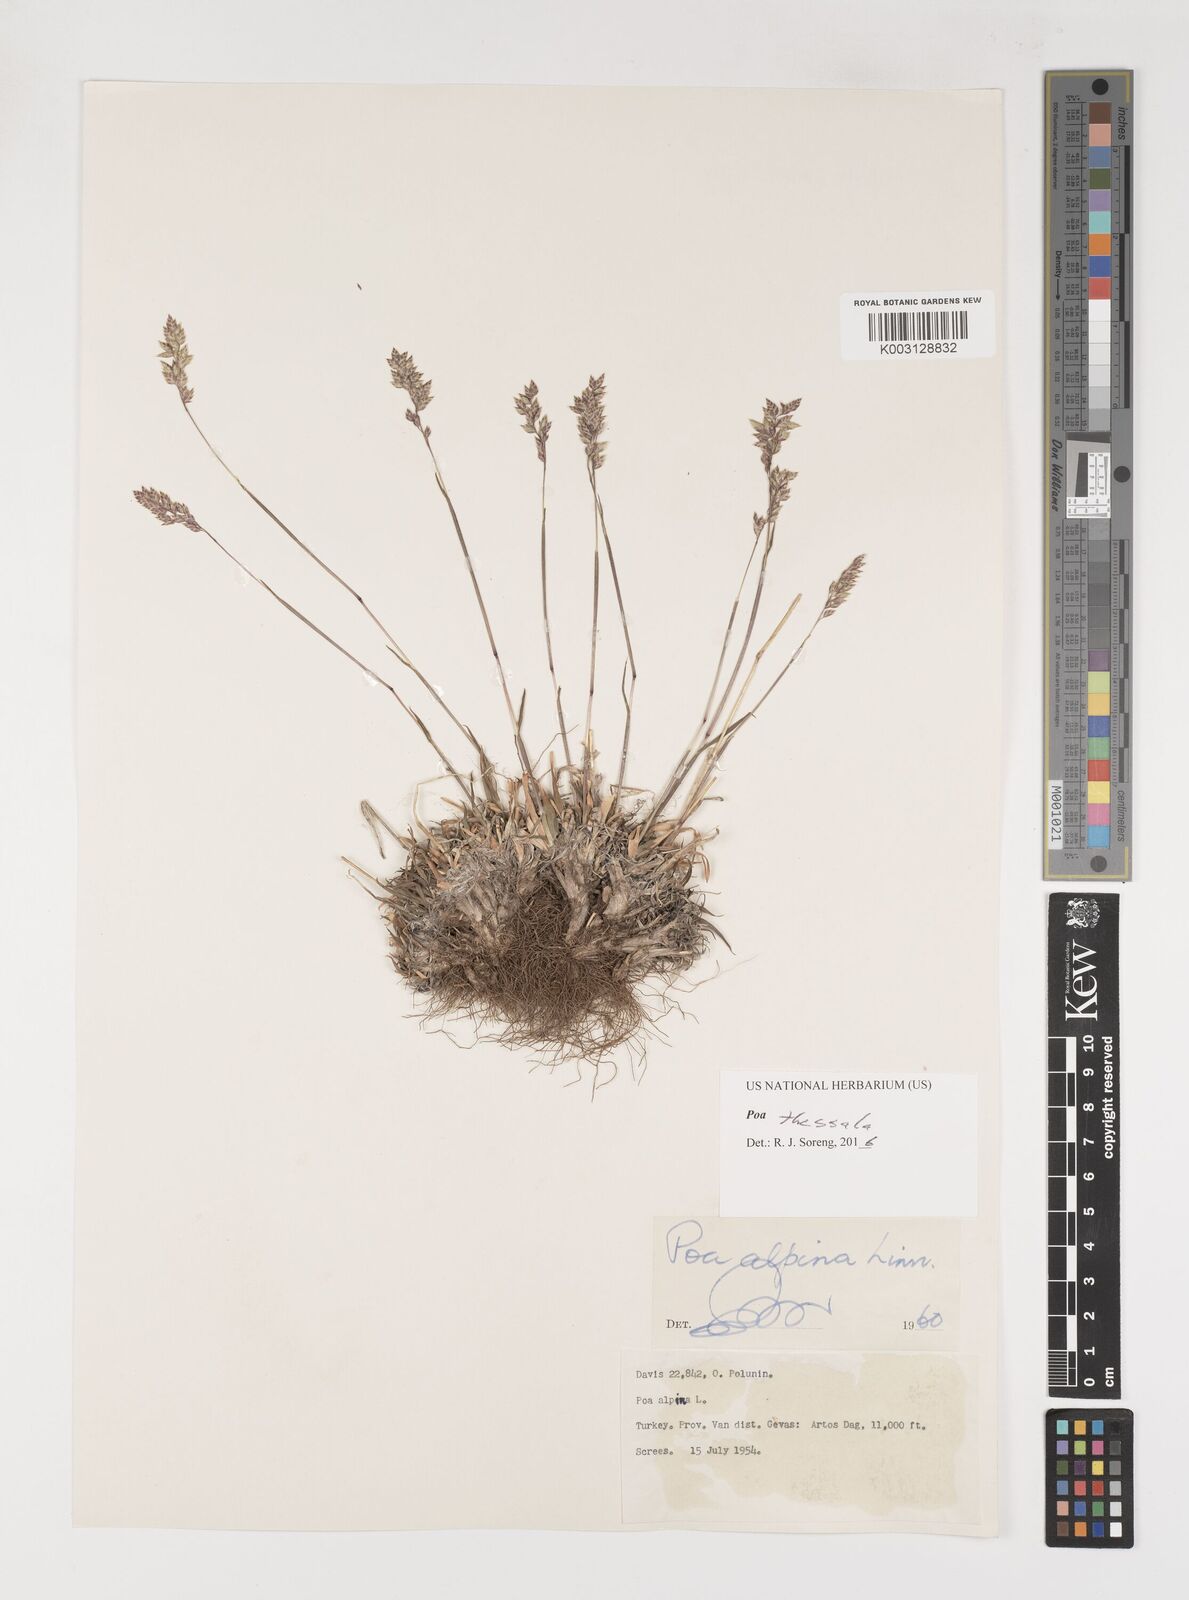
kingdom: Plantae
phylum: Tracheophyta
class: Liliopsida
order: Poales
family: Poaceae
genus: Poa
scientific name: Poa thessala
